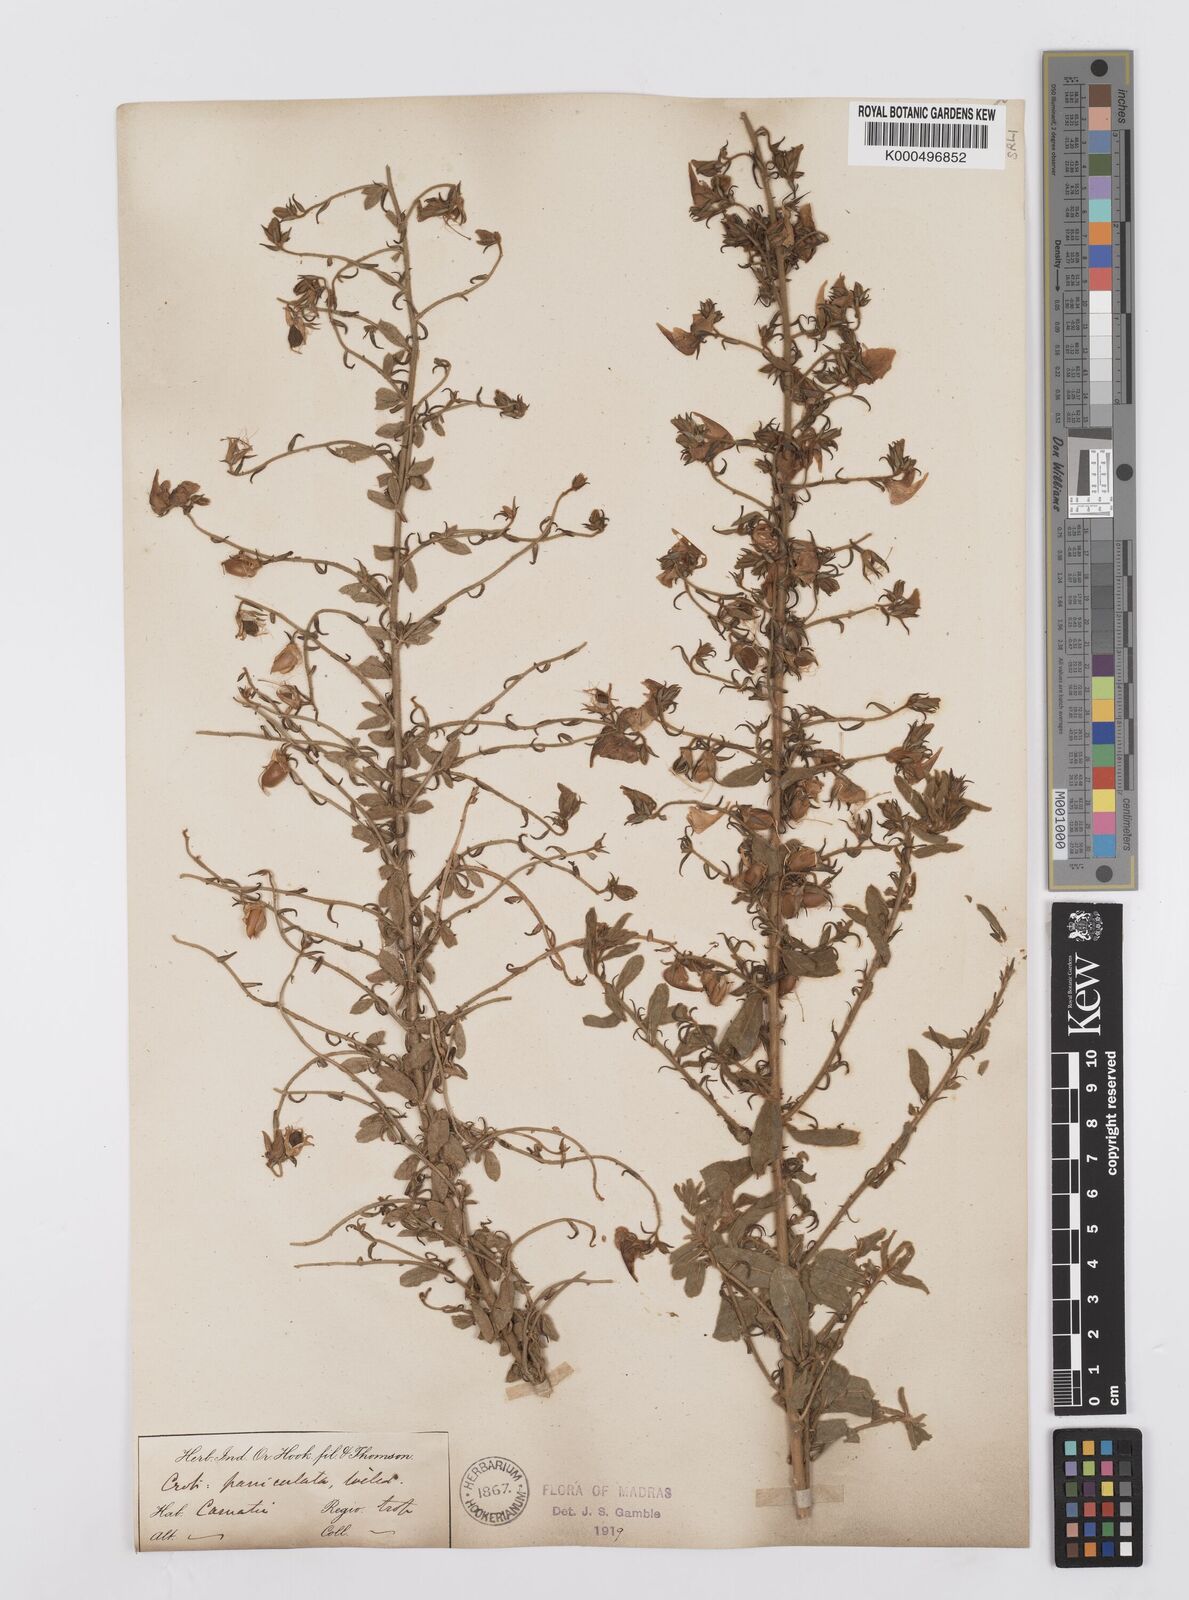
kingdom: Plantae
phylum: Tracheophyta
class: Magnoliopsida
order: Fabales
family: Fabaceae
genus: Crotalaria
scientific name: Crotalaria paniculata
